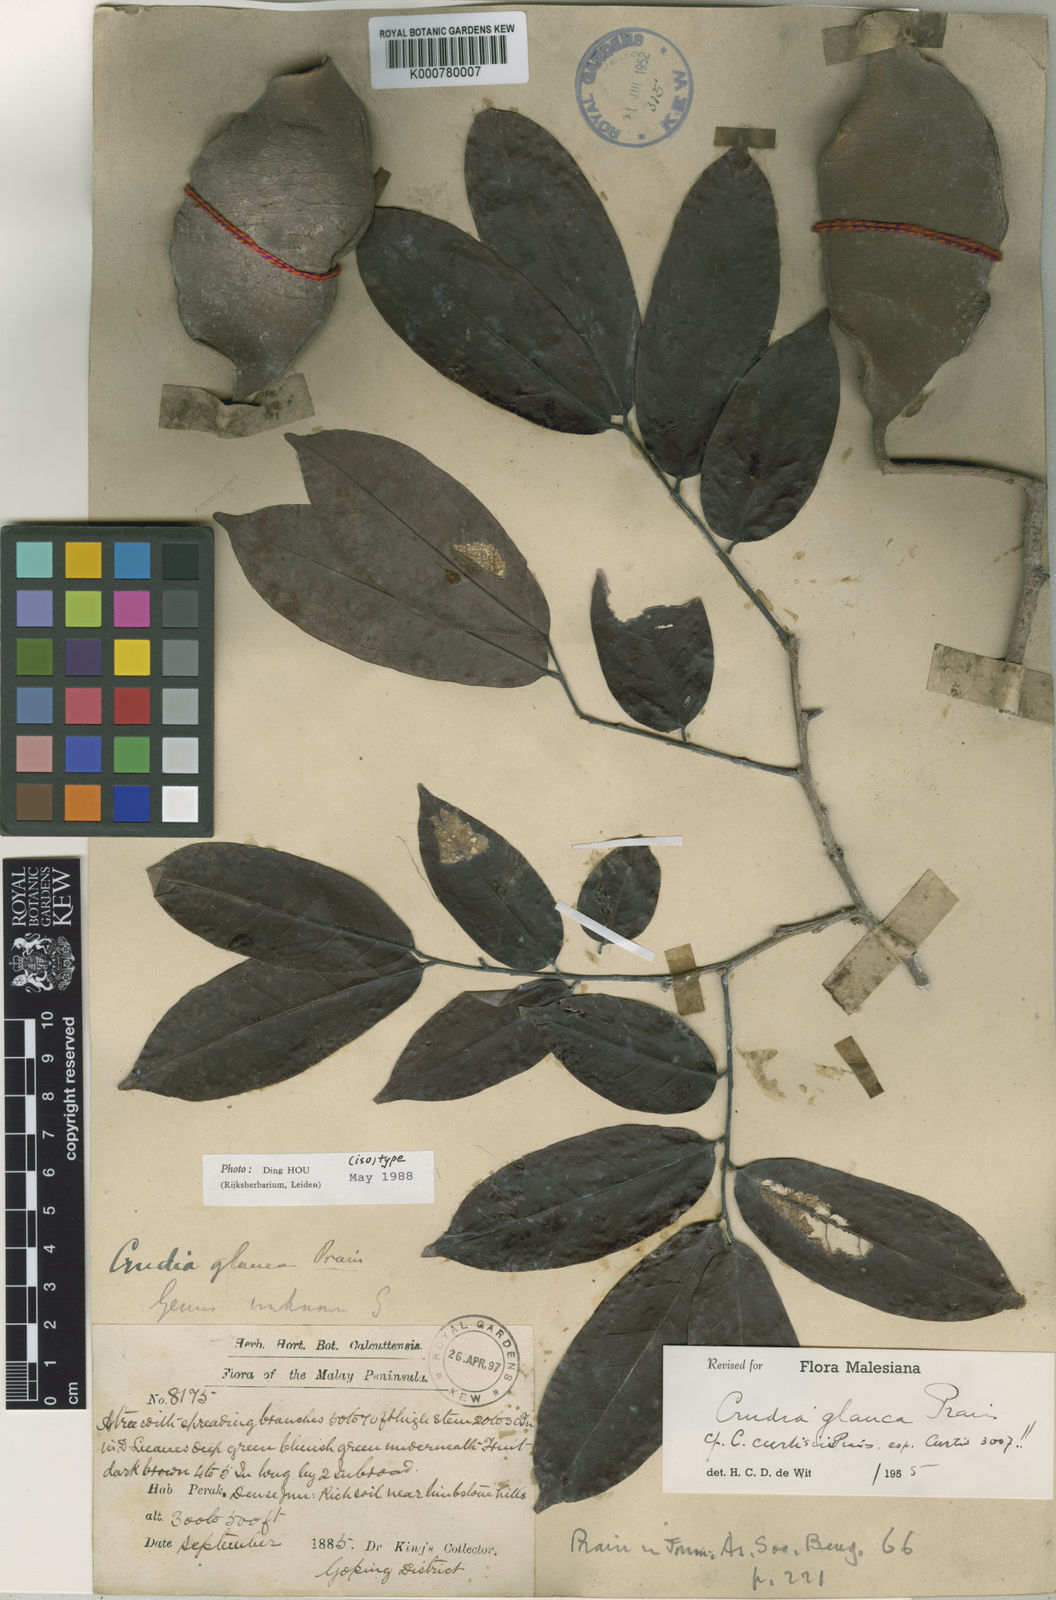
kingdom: Plantae
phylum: Tracheophyta
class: Magnoliopsida
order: Fabales
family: Fabaceae
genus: Crudia
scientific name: Crudia curtisii
